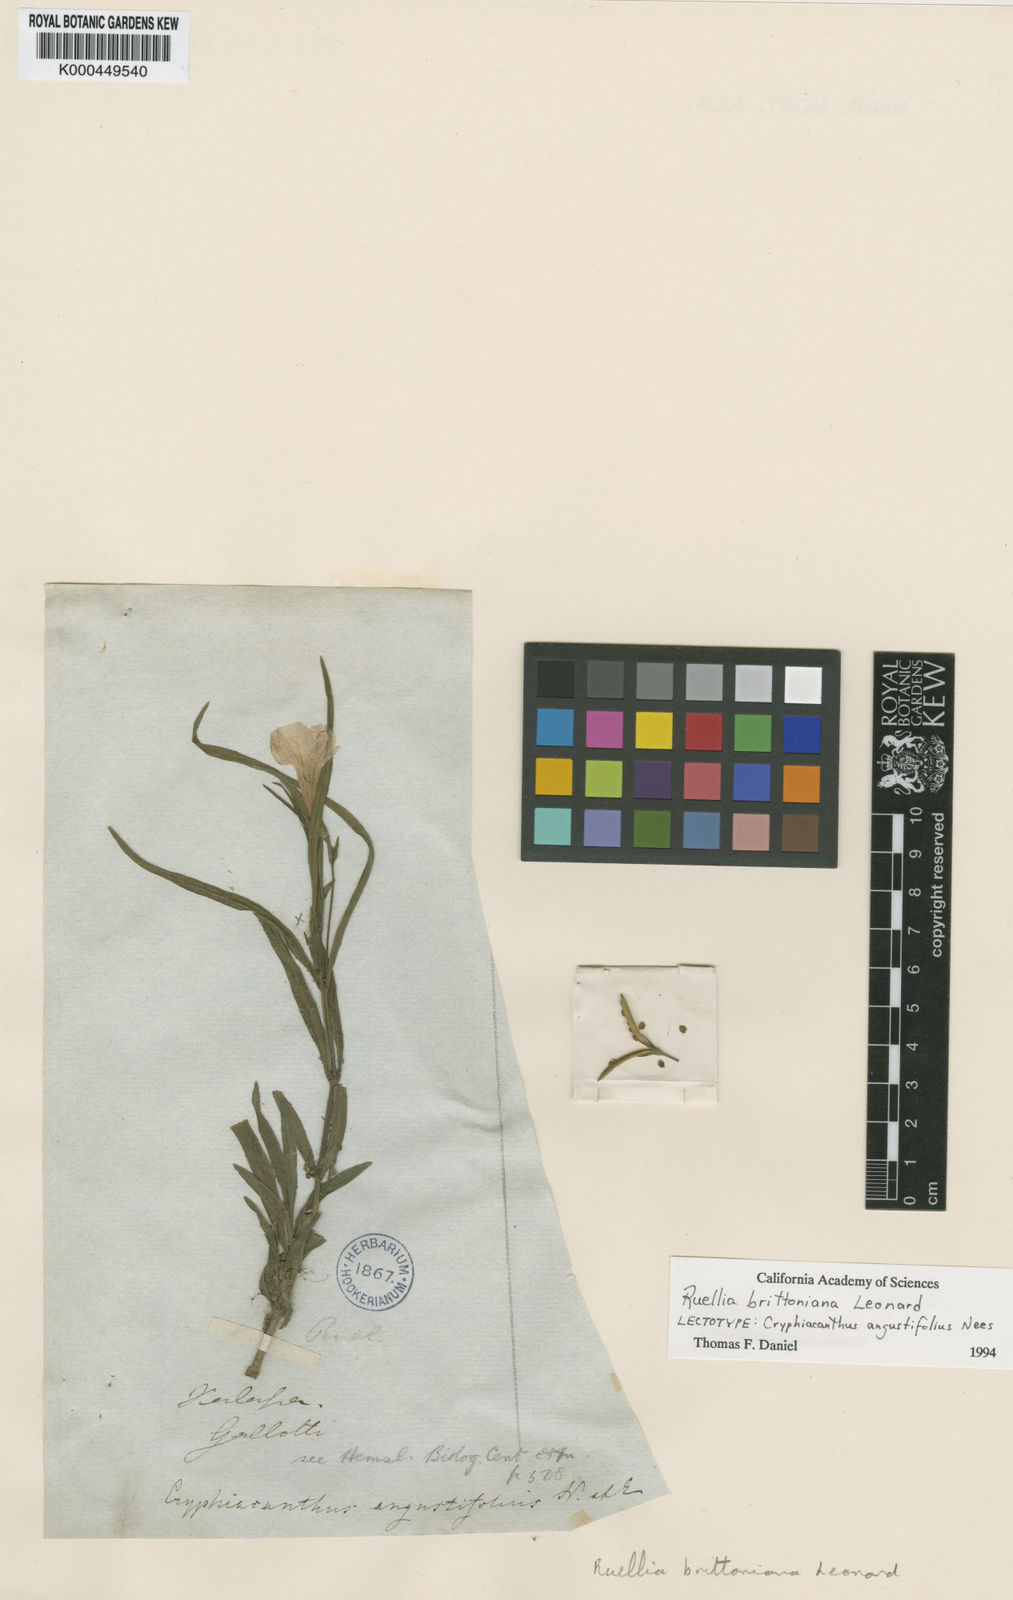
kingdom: Plantae
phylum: Tracheophyta
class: Magnoliopsida
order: Lamiales
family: Acanthaceae
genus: Ruellia
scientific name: Ruellia simplex
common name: Softseed wild petunia
